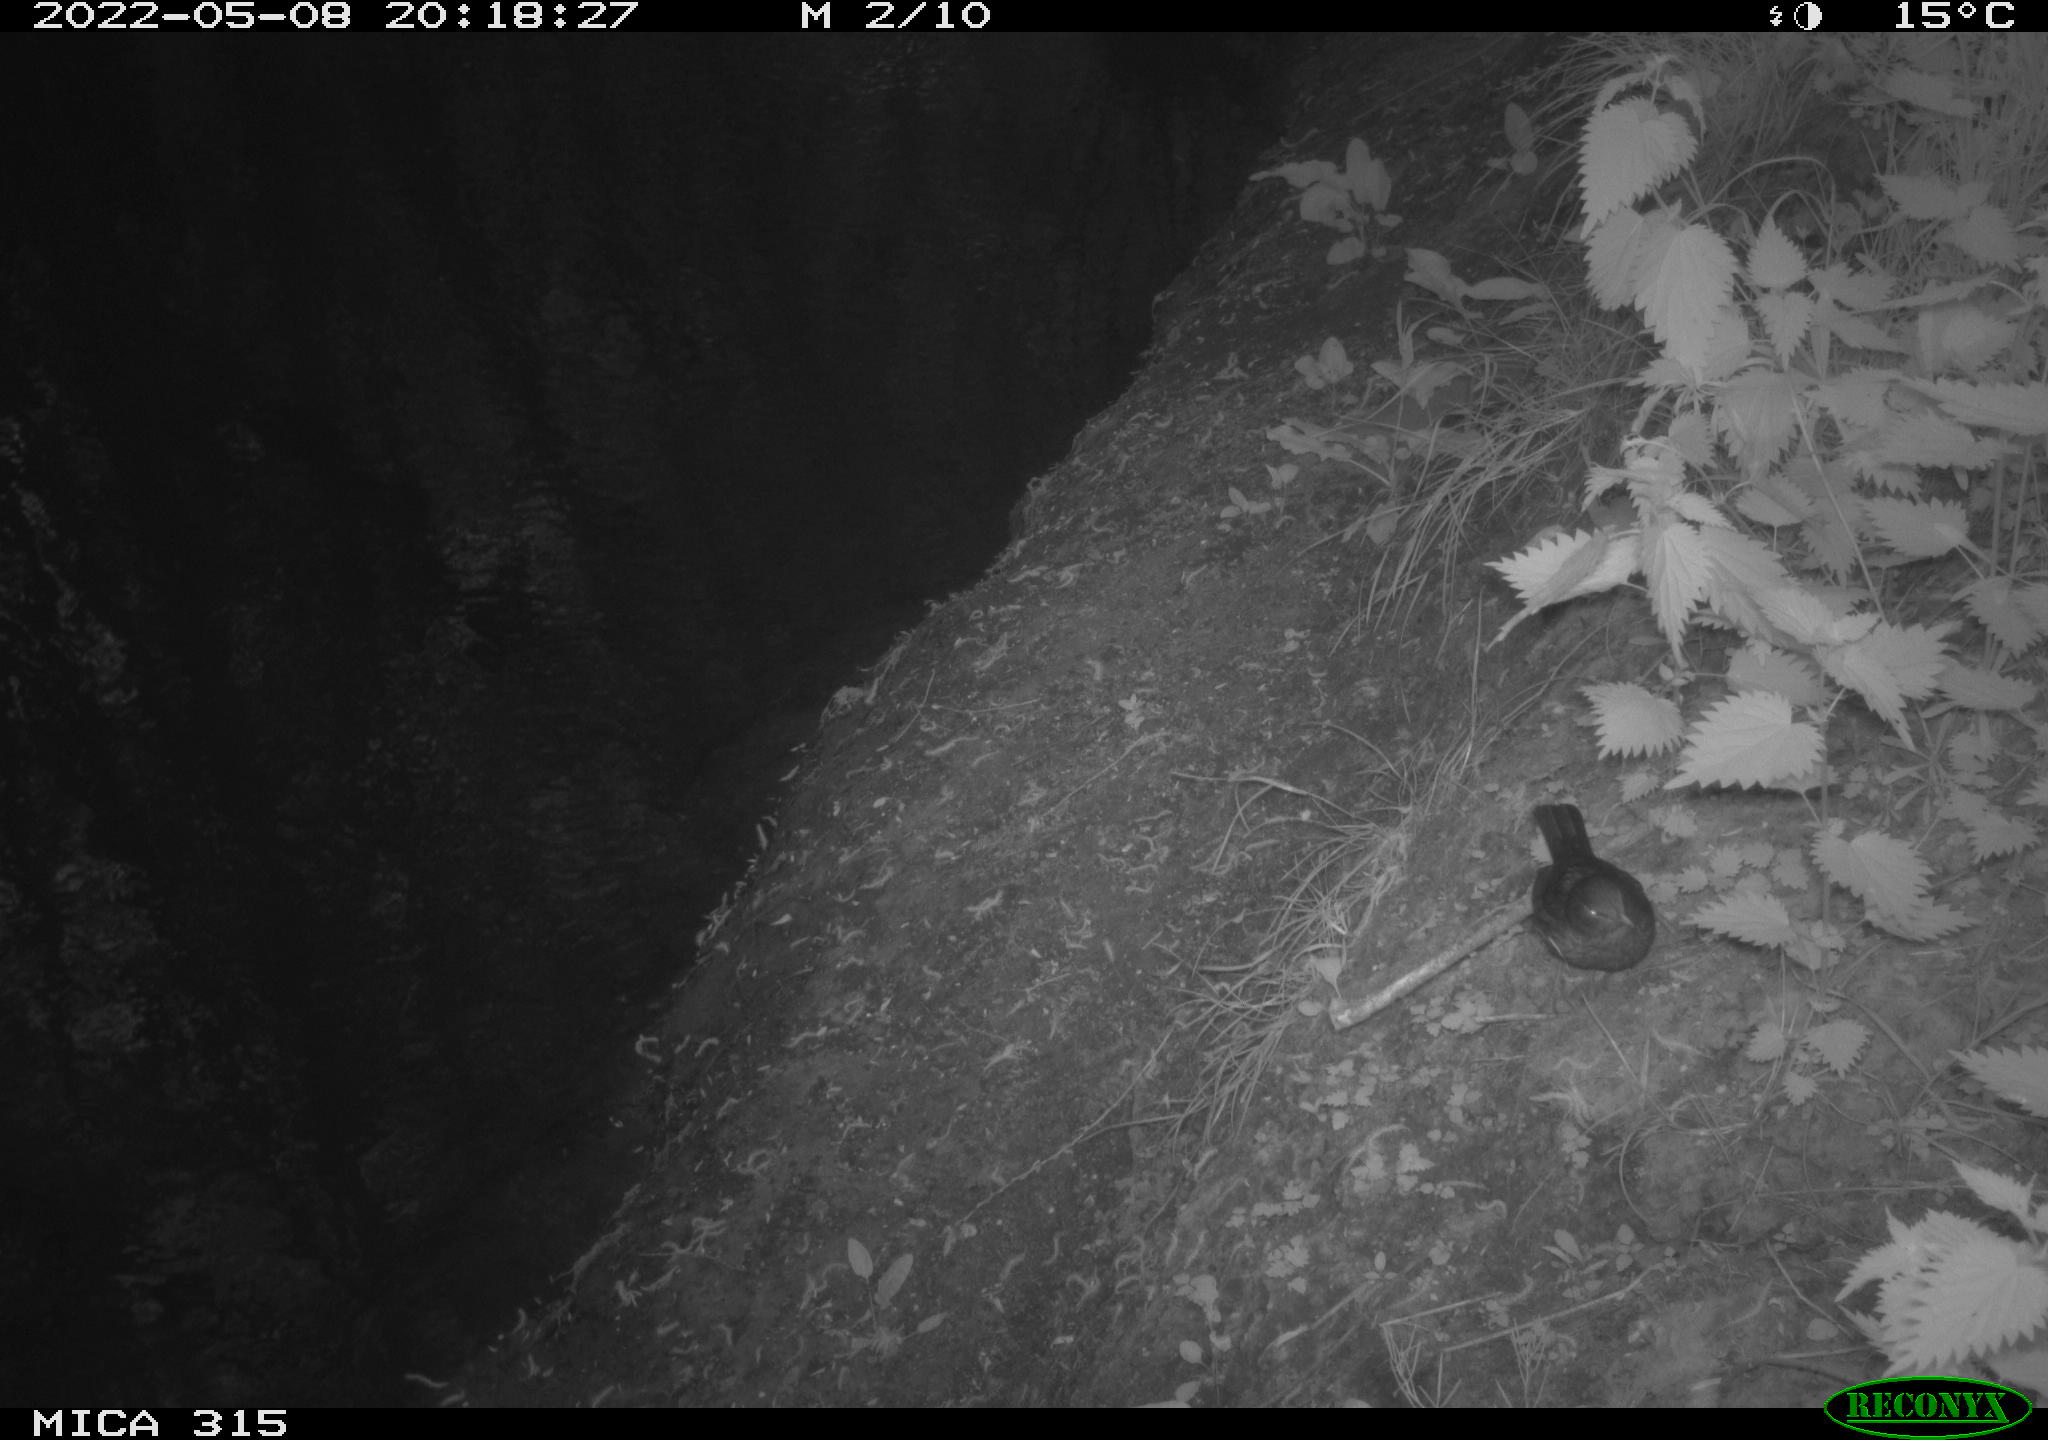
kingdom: Animalia
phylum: Chordata
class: Aves
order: Passeriformes
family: Turdidae
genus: Turdus
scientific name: Turdus merula
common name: Common blackbird
